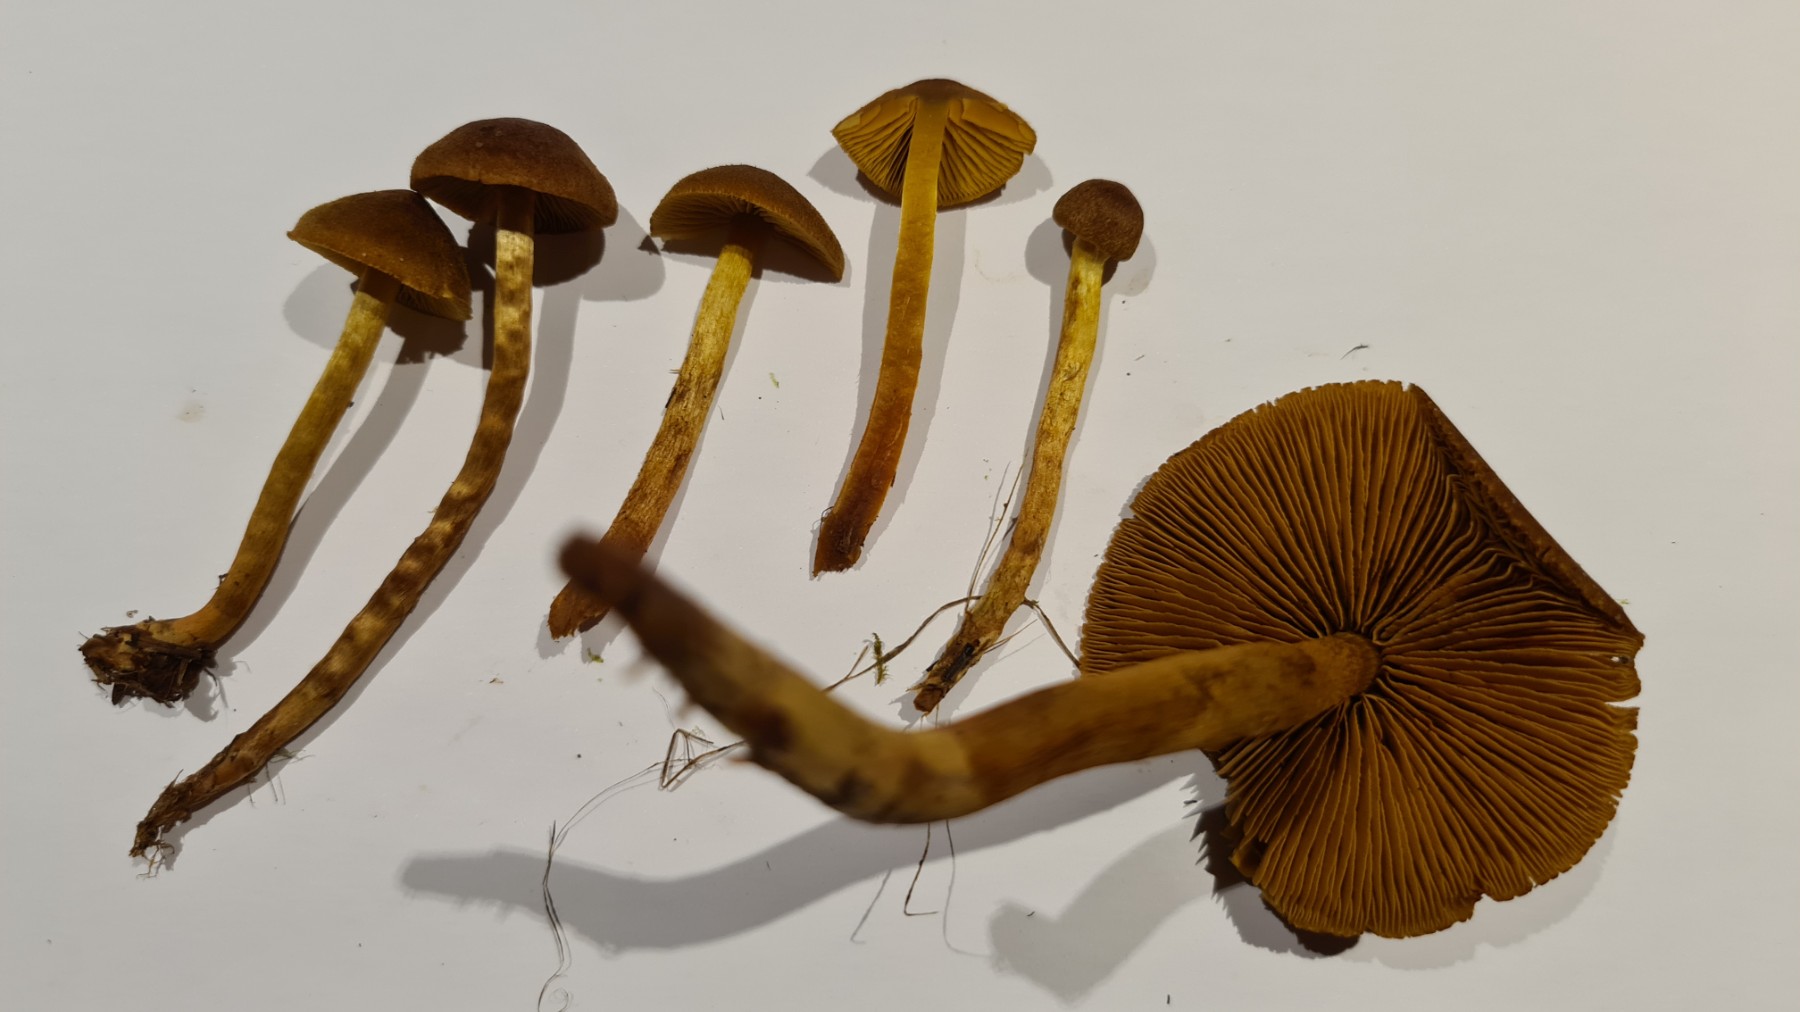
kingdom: Fungi
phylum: Basidiomycota
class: Agaricomycetes
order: Agaricales
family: Cortinariaceae
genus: Cortinarius
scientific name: Cortinarius
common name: gulbladet slørhat
